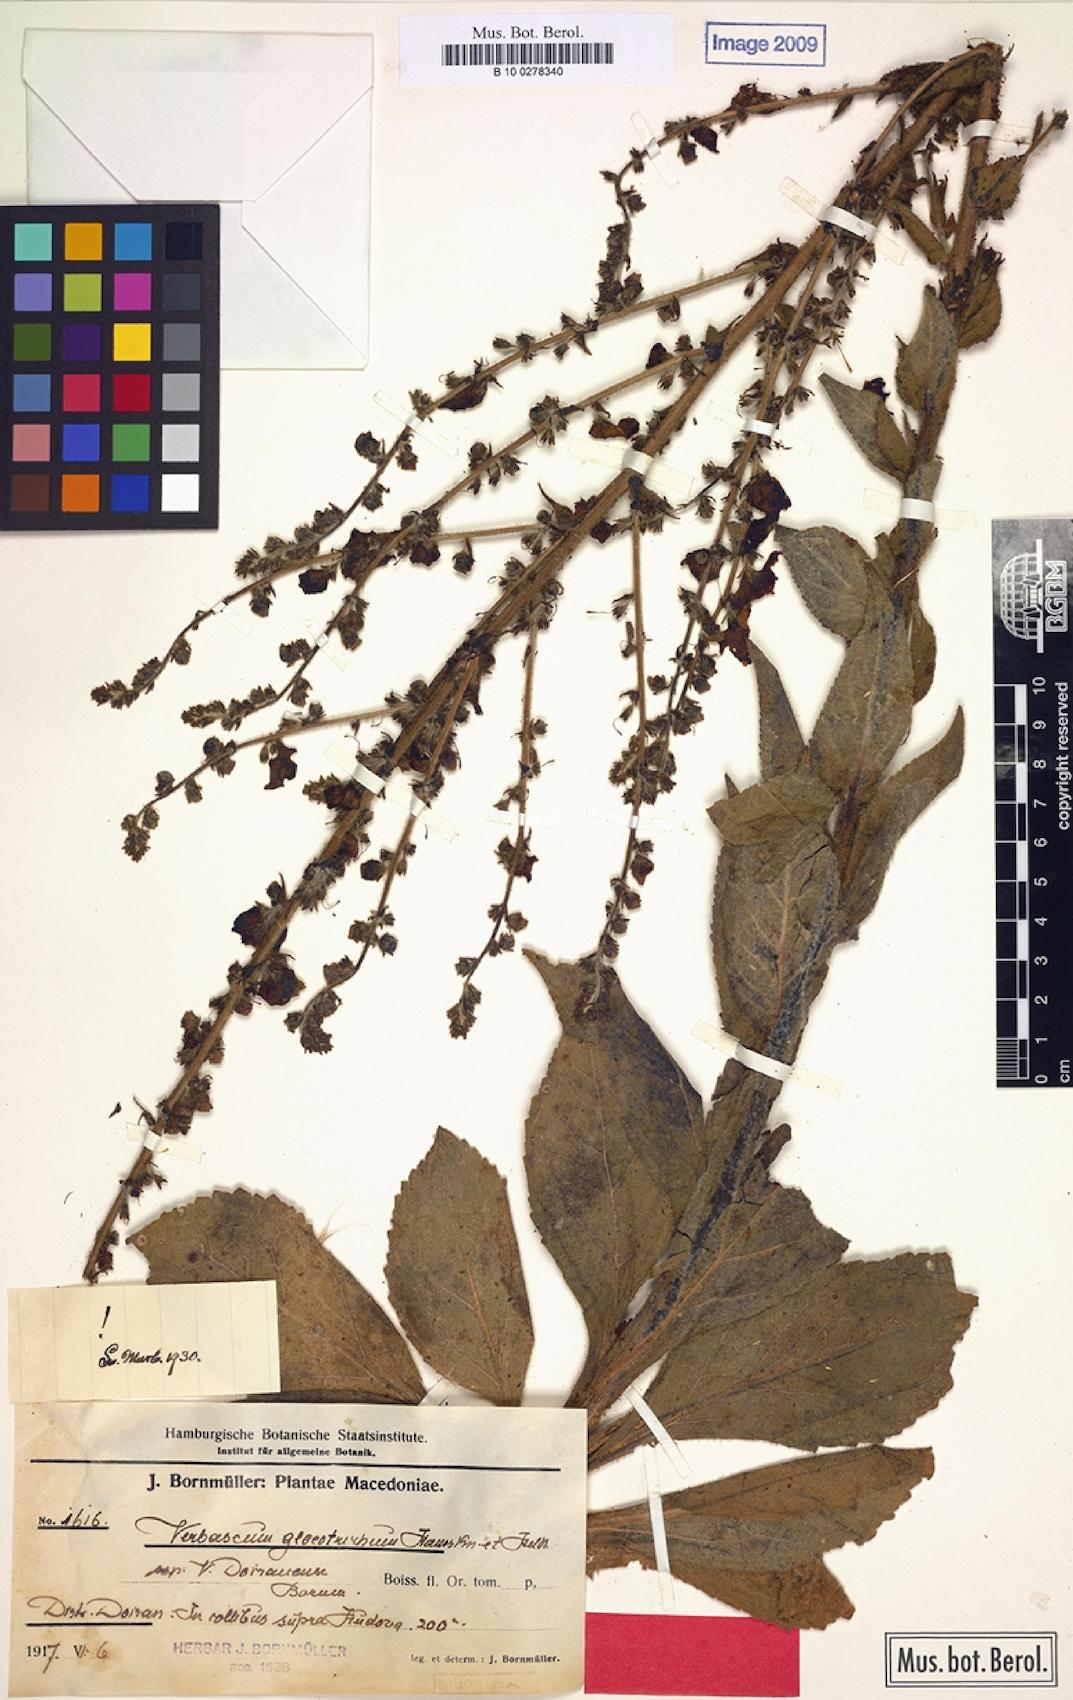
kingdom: Plantae
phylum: Tracheophyta
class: Magnoliopsida
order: Lamiales
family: Scrophulariaceae
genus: Verbascum
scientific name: Verbascum gloeotrichum
